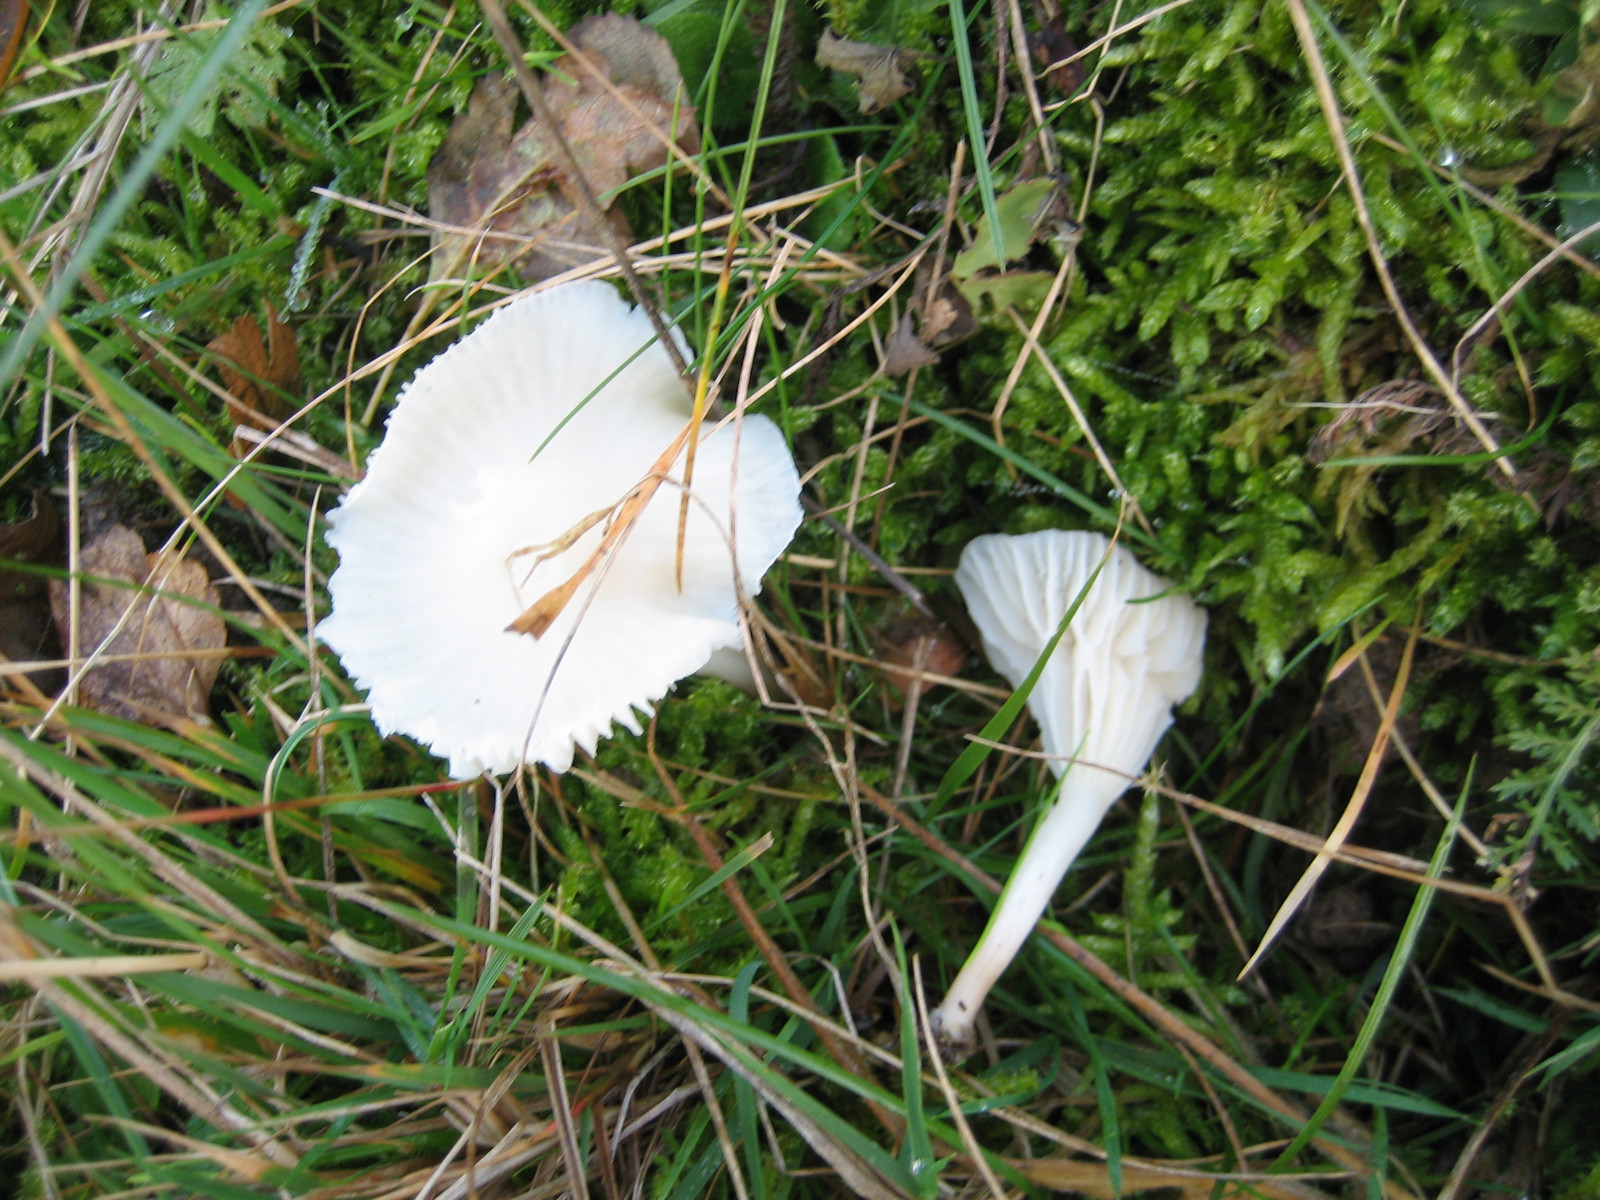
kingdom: Fungi
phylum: Basidiomycota
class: Agaricomycetes
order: Agaricales
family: Hygrophoraceae
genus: Cuphophyllus
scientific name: Cuphophyllus virgineus
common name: snehvid vokshat
